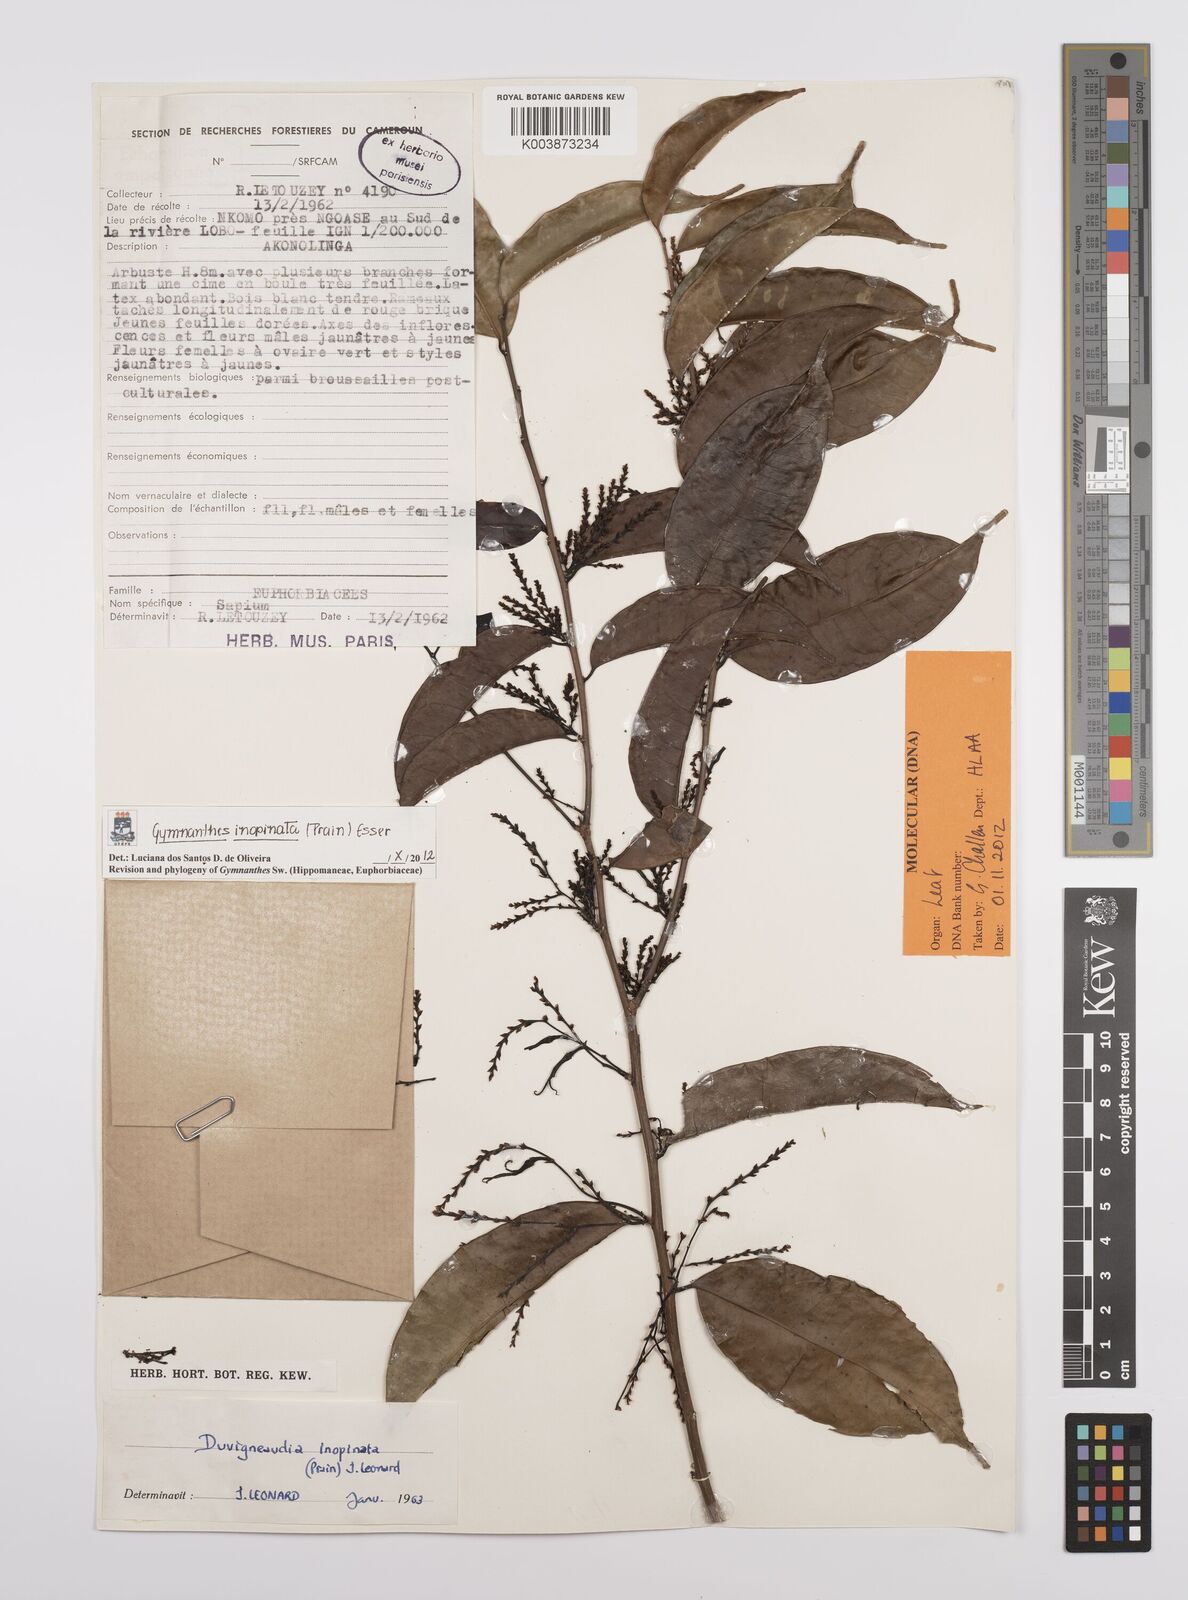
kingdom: Plantae
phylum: Tracheophyta
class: Magnoliopsida
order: Malpighiales
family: Euphorbiaceae
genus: Gymnanthes
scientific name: Gymnanthes inopinata
